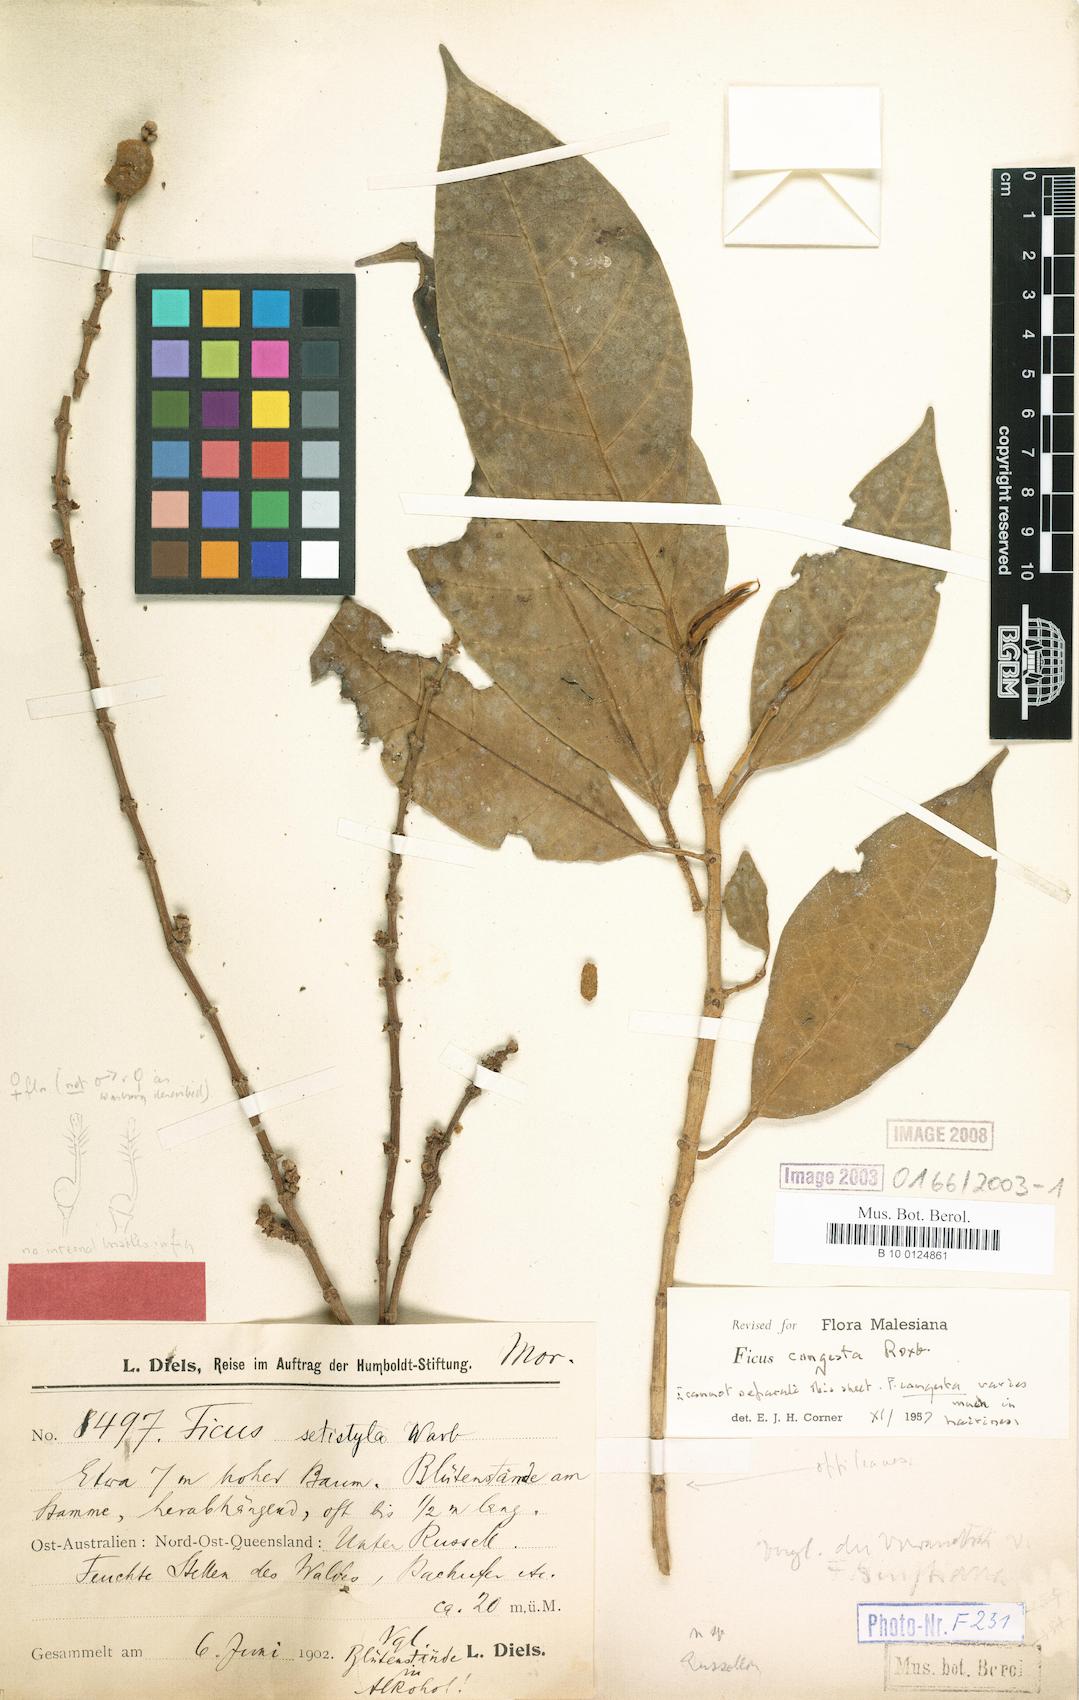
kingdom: Plantae
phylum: Tracheophyta
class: Magnoliopsida
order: Rosales
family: Moraceae
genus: Ficus
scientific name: Ficus calopilina
